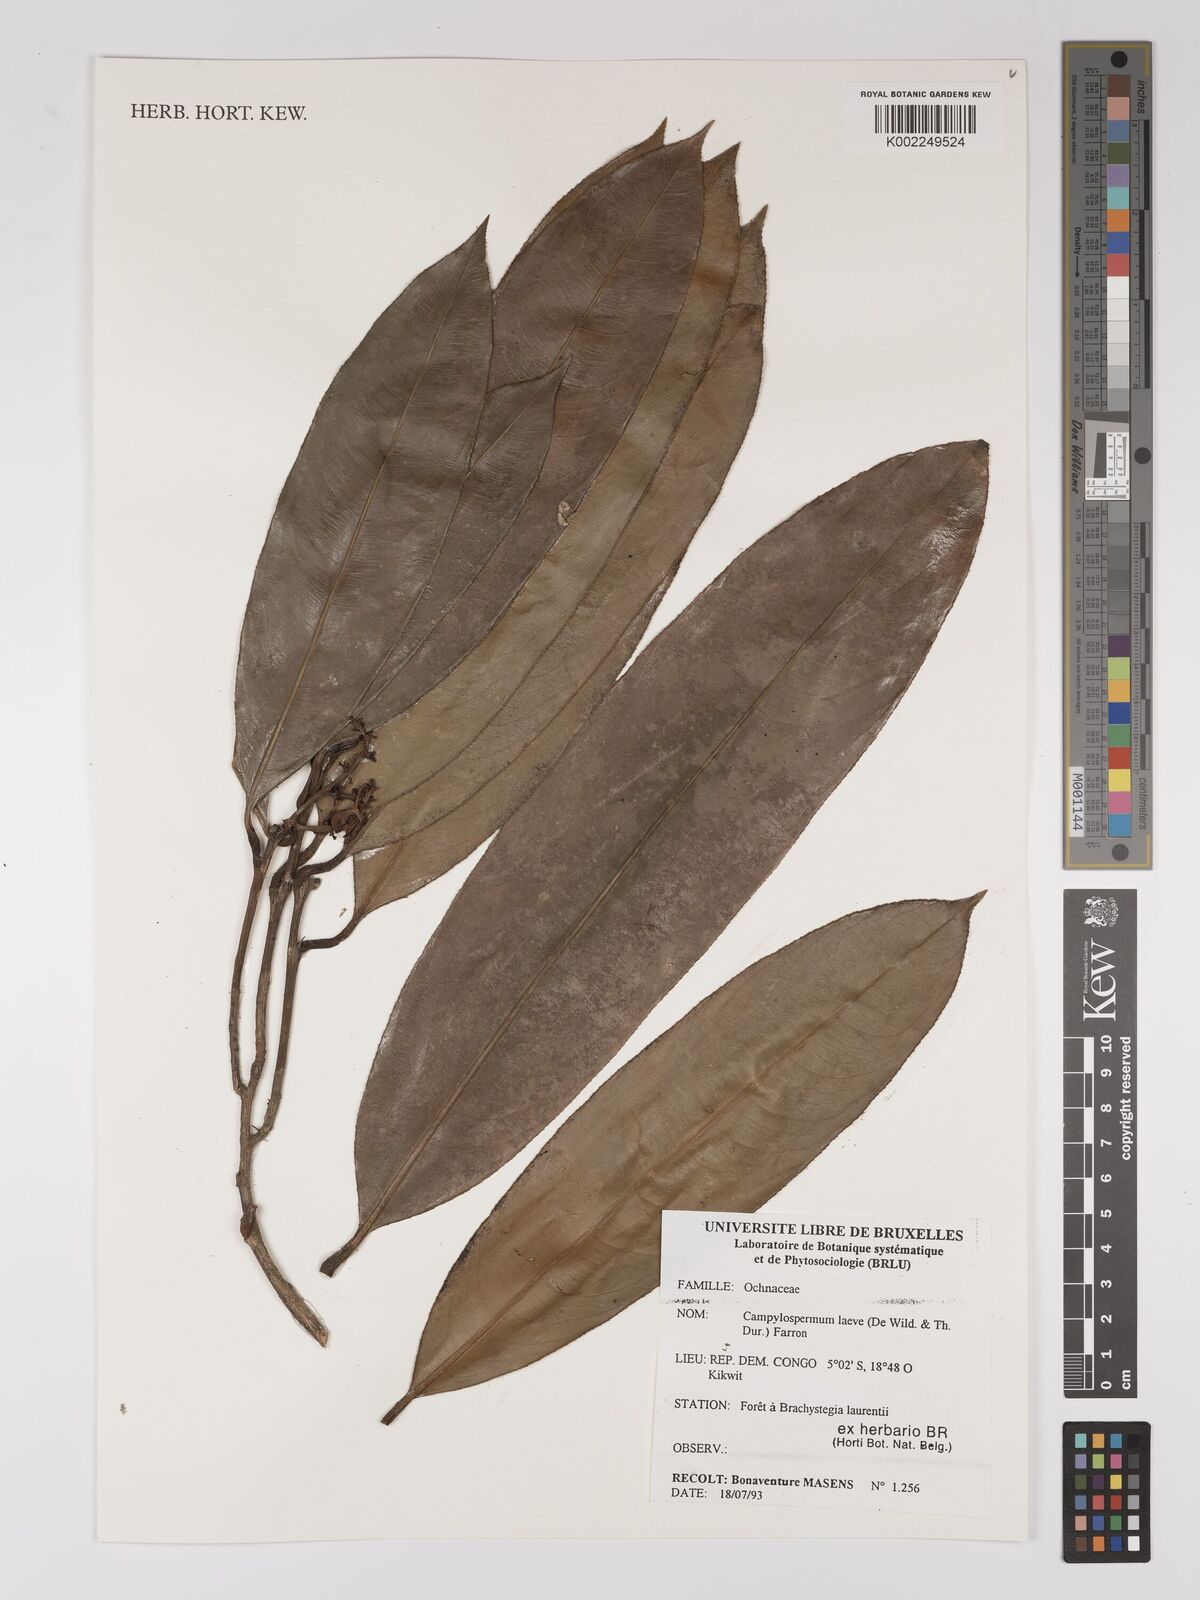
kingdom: Plantae
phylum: Tracheophyta
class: Magnoliopsida
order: Malpighiales
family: Ochnaceae
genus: Campylospermum
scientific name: Campylospermum laeve
